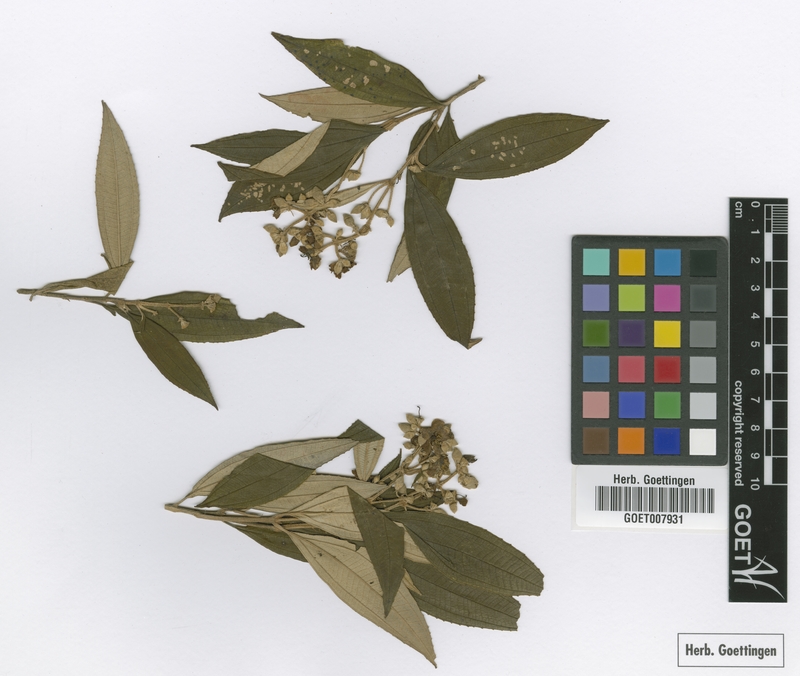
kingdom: Plantae
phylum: Tracheophyta
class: Magnoliopsida
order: Myrtales
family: Melastomataceae
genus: Miconia
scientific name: Miconia xalapensis
